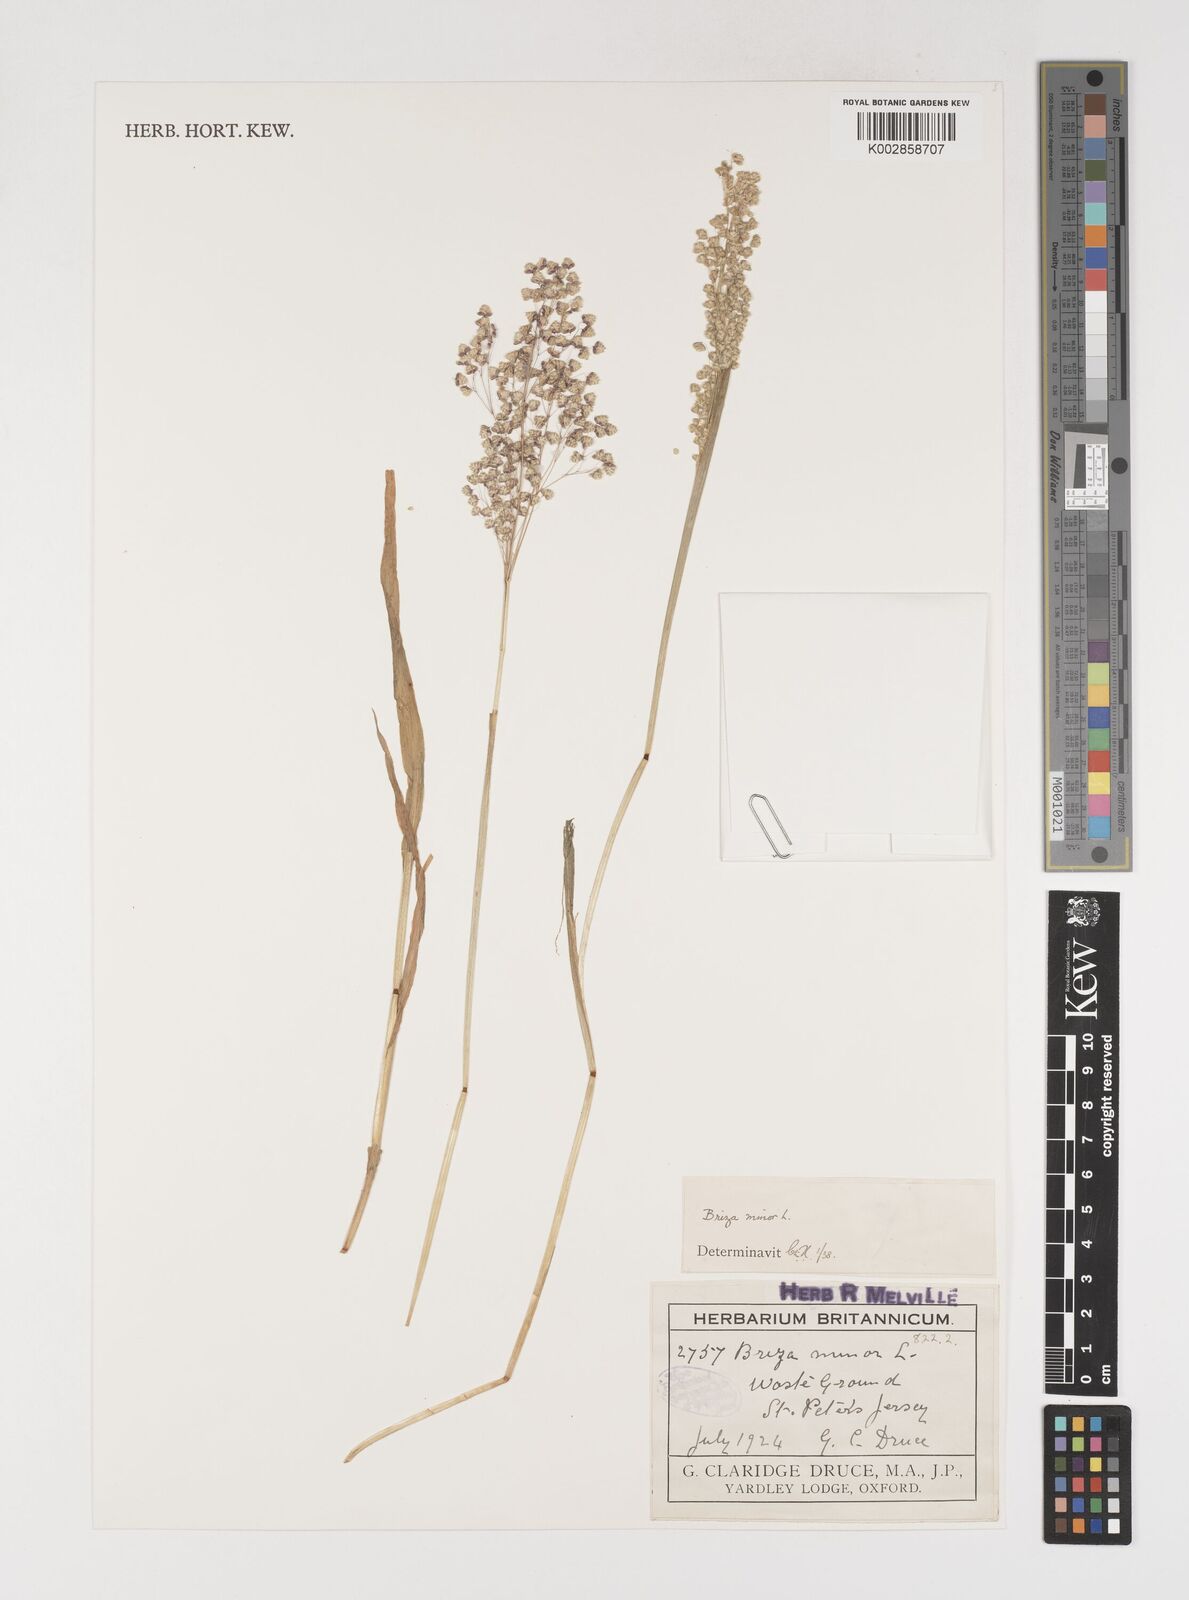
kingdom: Plantae
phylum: Tracheophyta
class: Liliopsida
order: Poales
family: Poaceae
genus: Briza
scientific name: Briza minor
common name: Lesser quaking-grass
